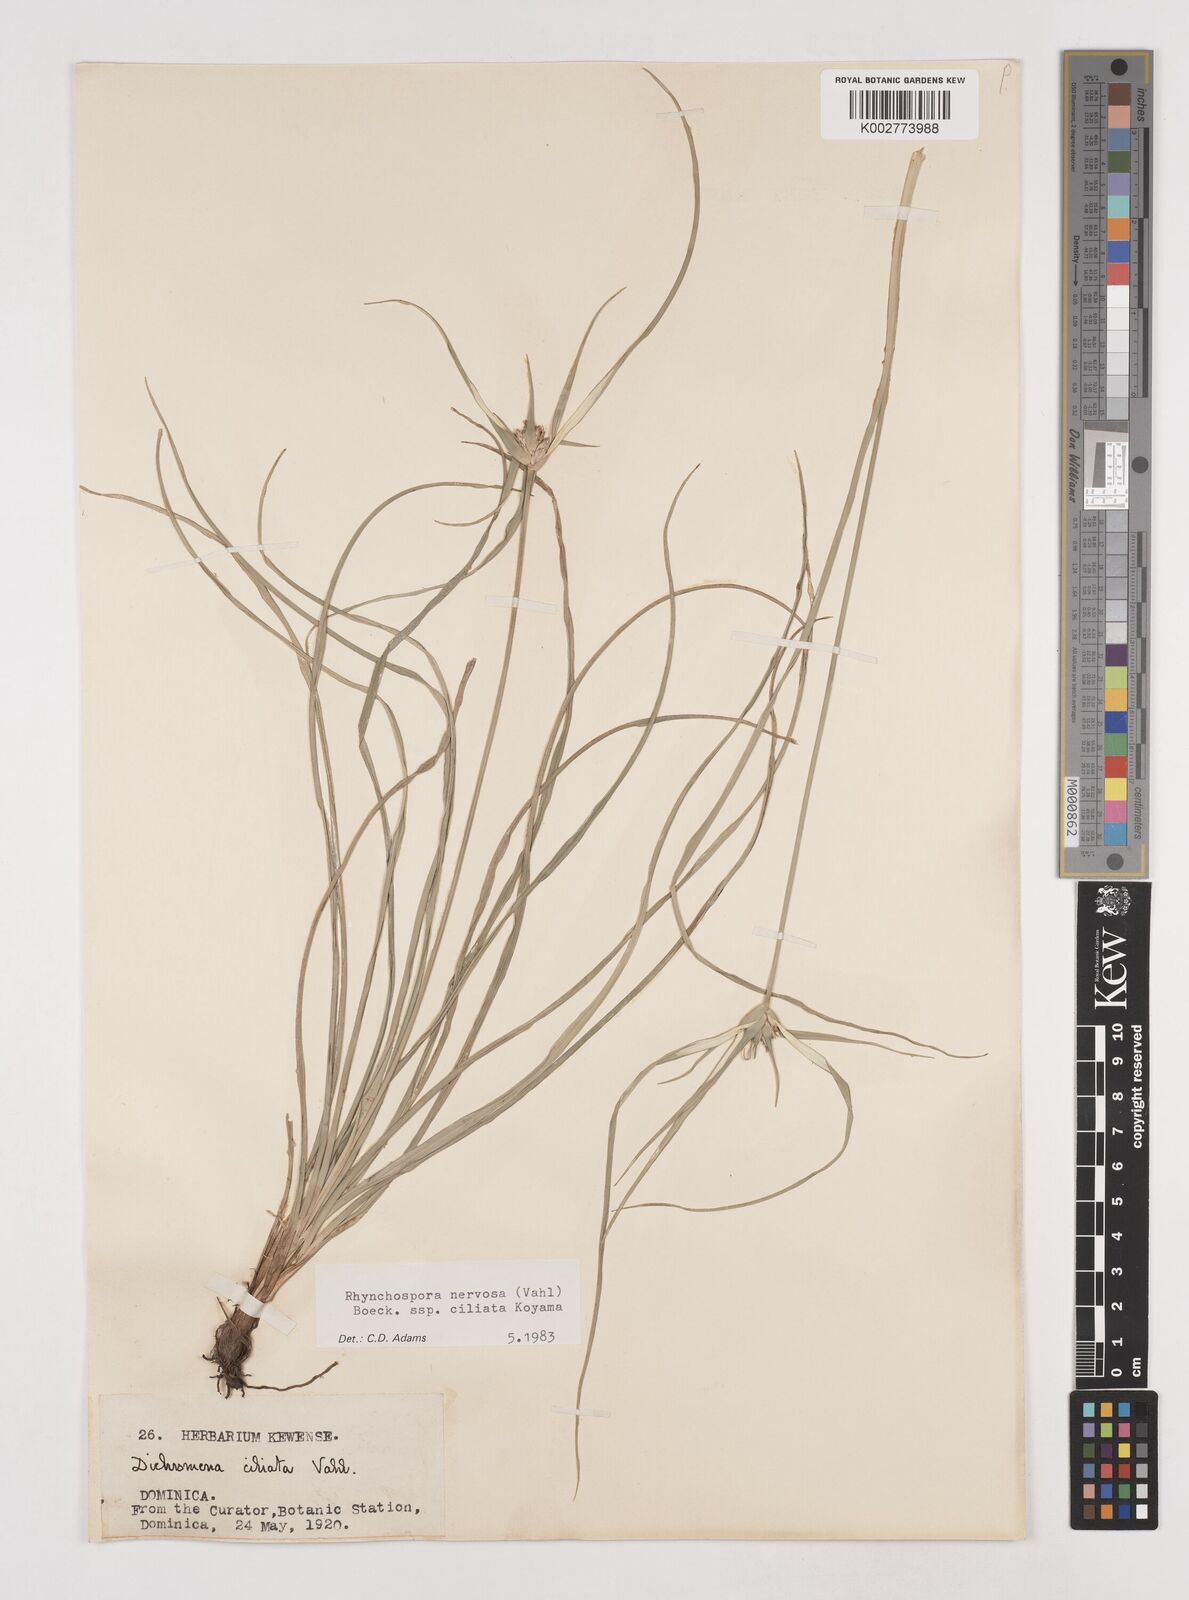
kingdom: Plantae
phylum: Tracheophyta
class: Liliopsida
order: Poales
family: Cyperaceae
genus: Rhynchospora
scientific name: Rhynchospora pura
